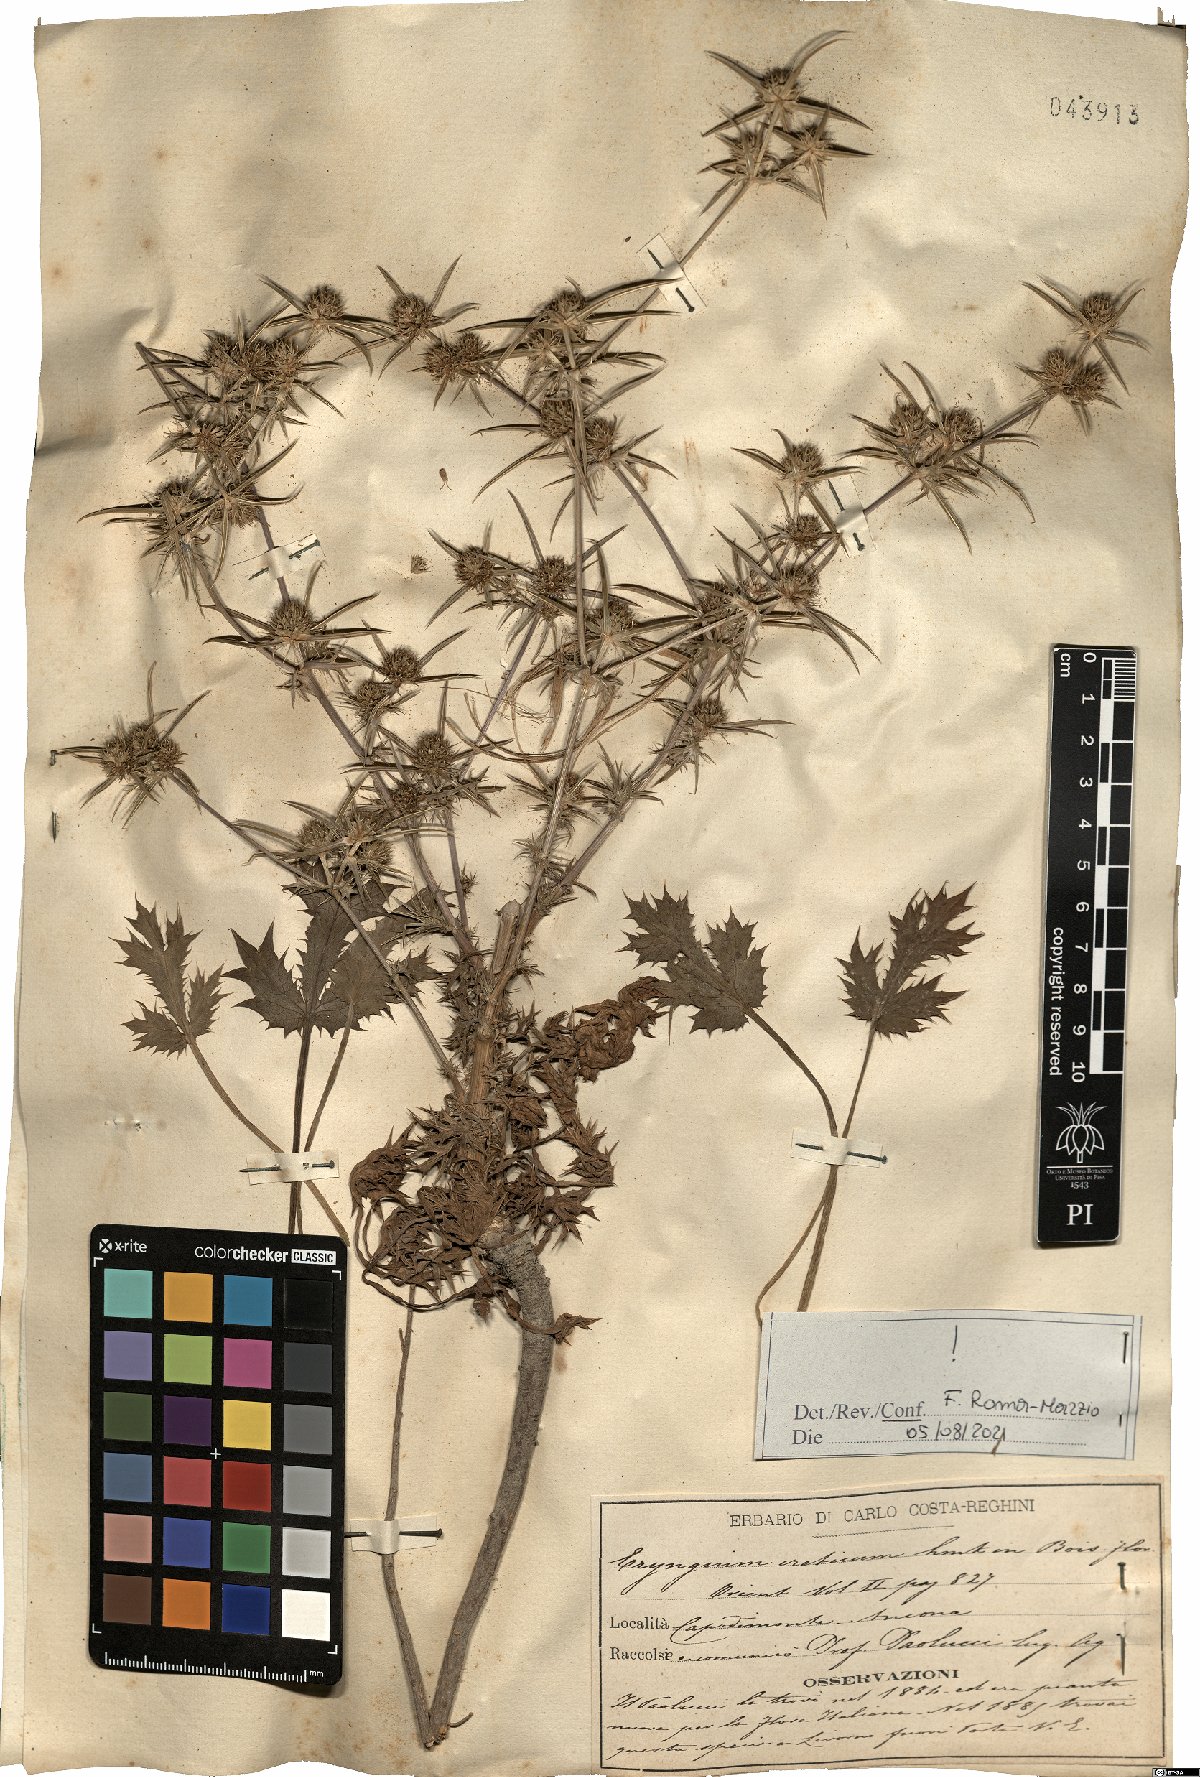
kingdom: Plantae
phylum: Tracheophyta
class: Magnoliopsida
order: Apiales
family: Apiaceae
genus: Eryngium
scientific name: Eryngium creticum
